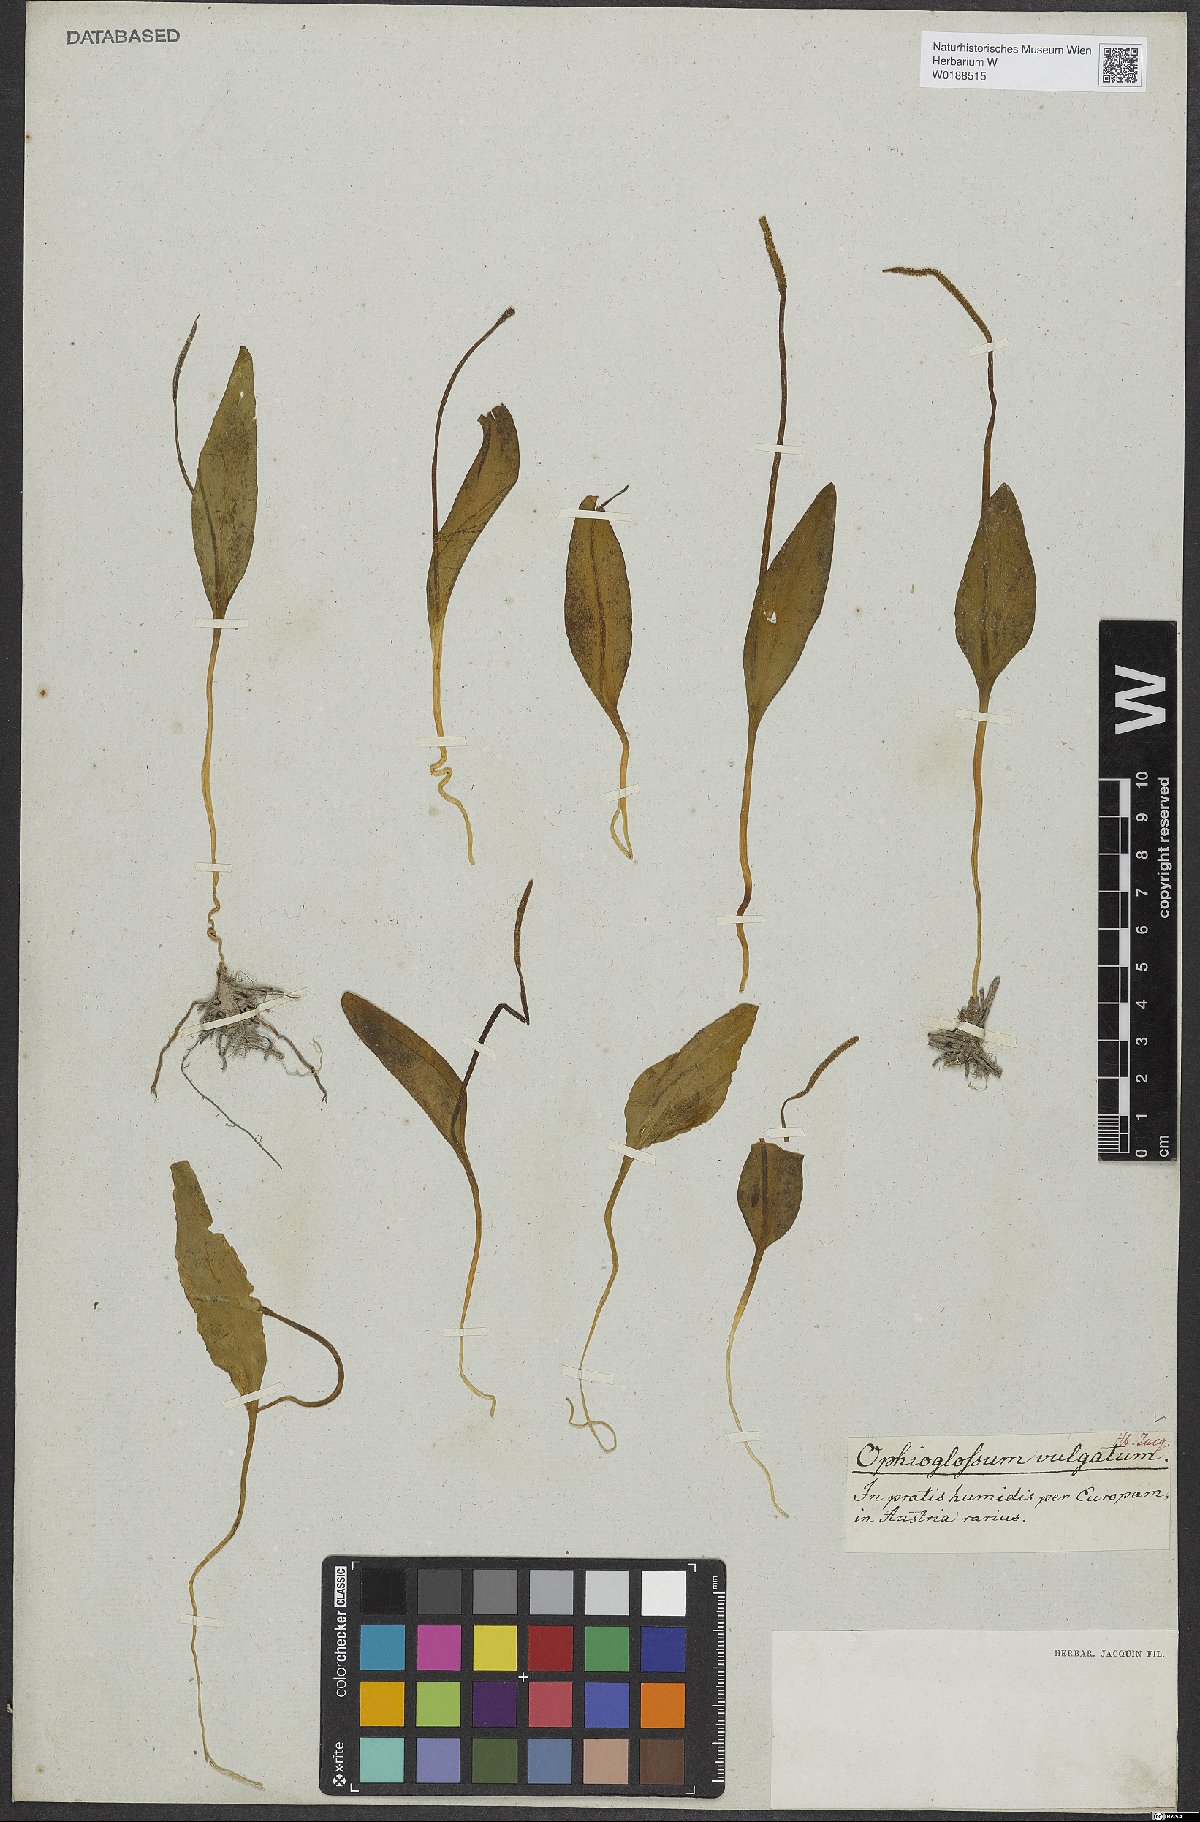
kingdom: Plantae
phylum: Tracheophyta
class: Polypodiopsida
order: Ophioglossales
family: Ophioglossaceae
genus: Ophioglossum
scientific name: Ophioglossum vulgatum
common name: Adder's-tongue
